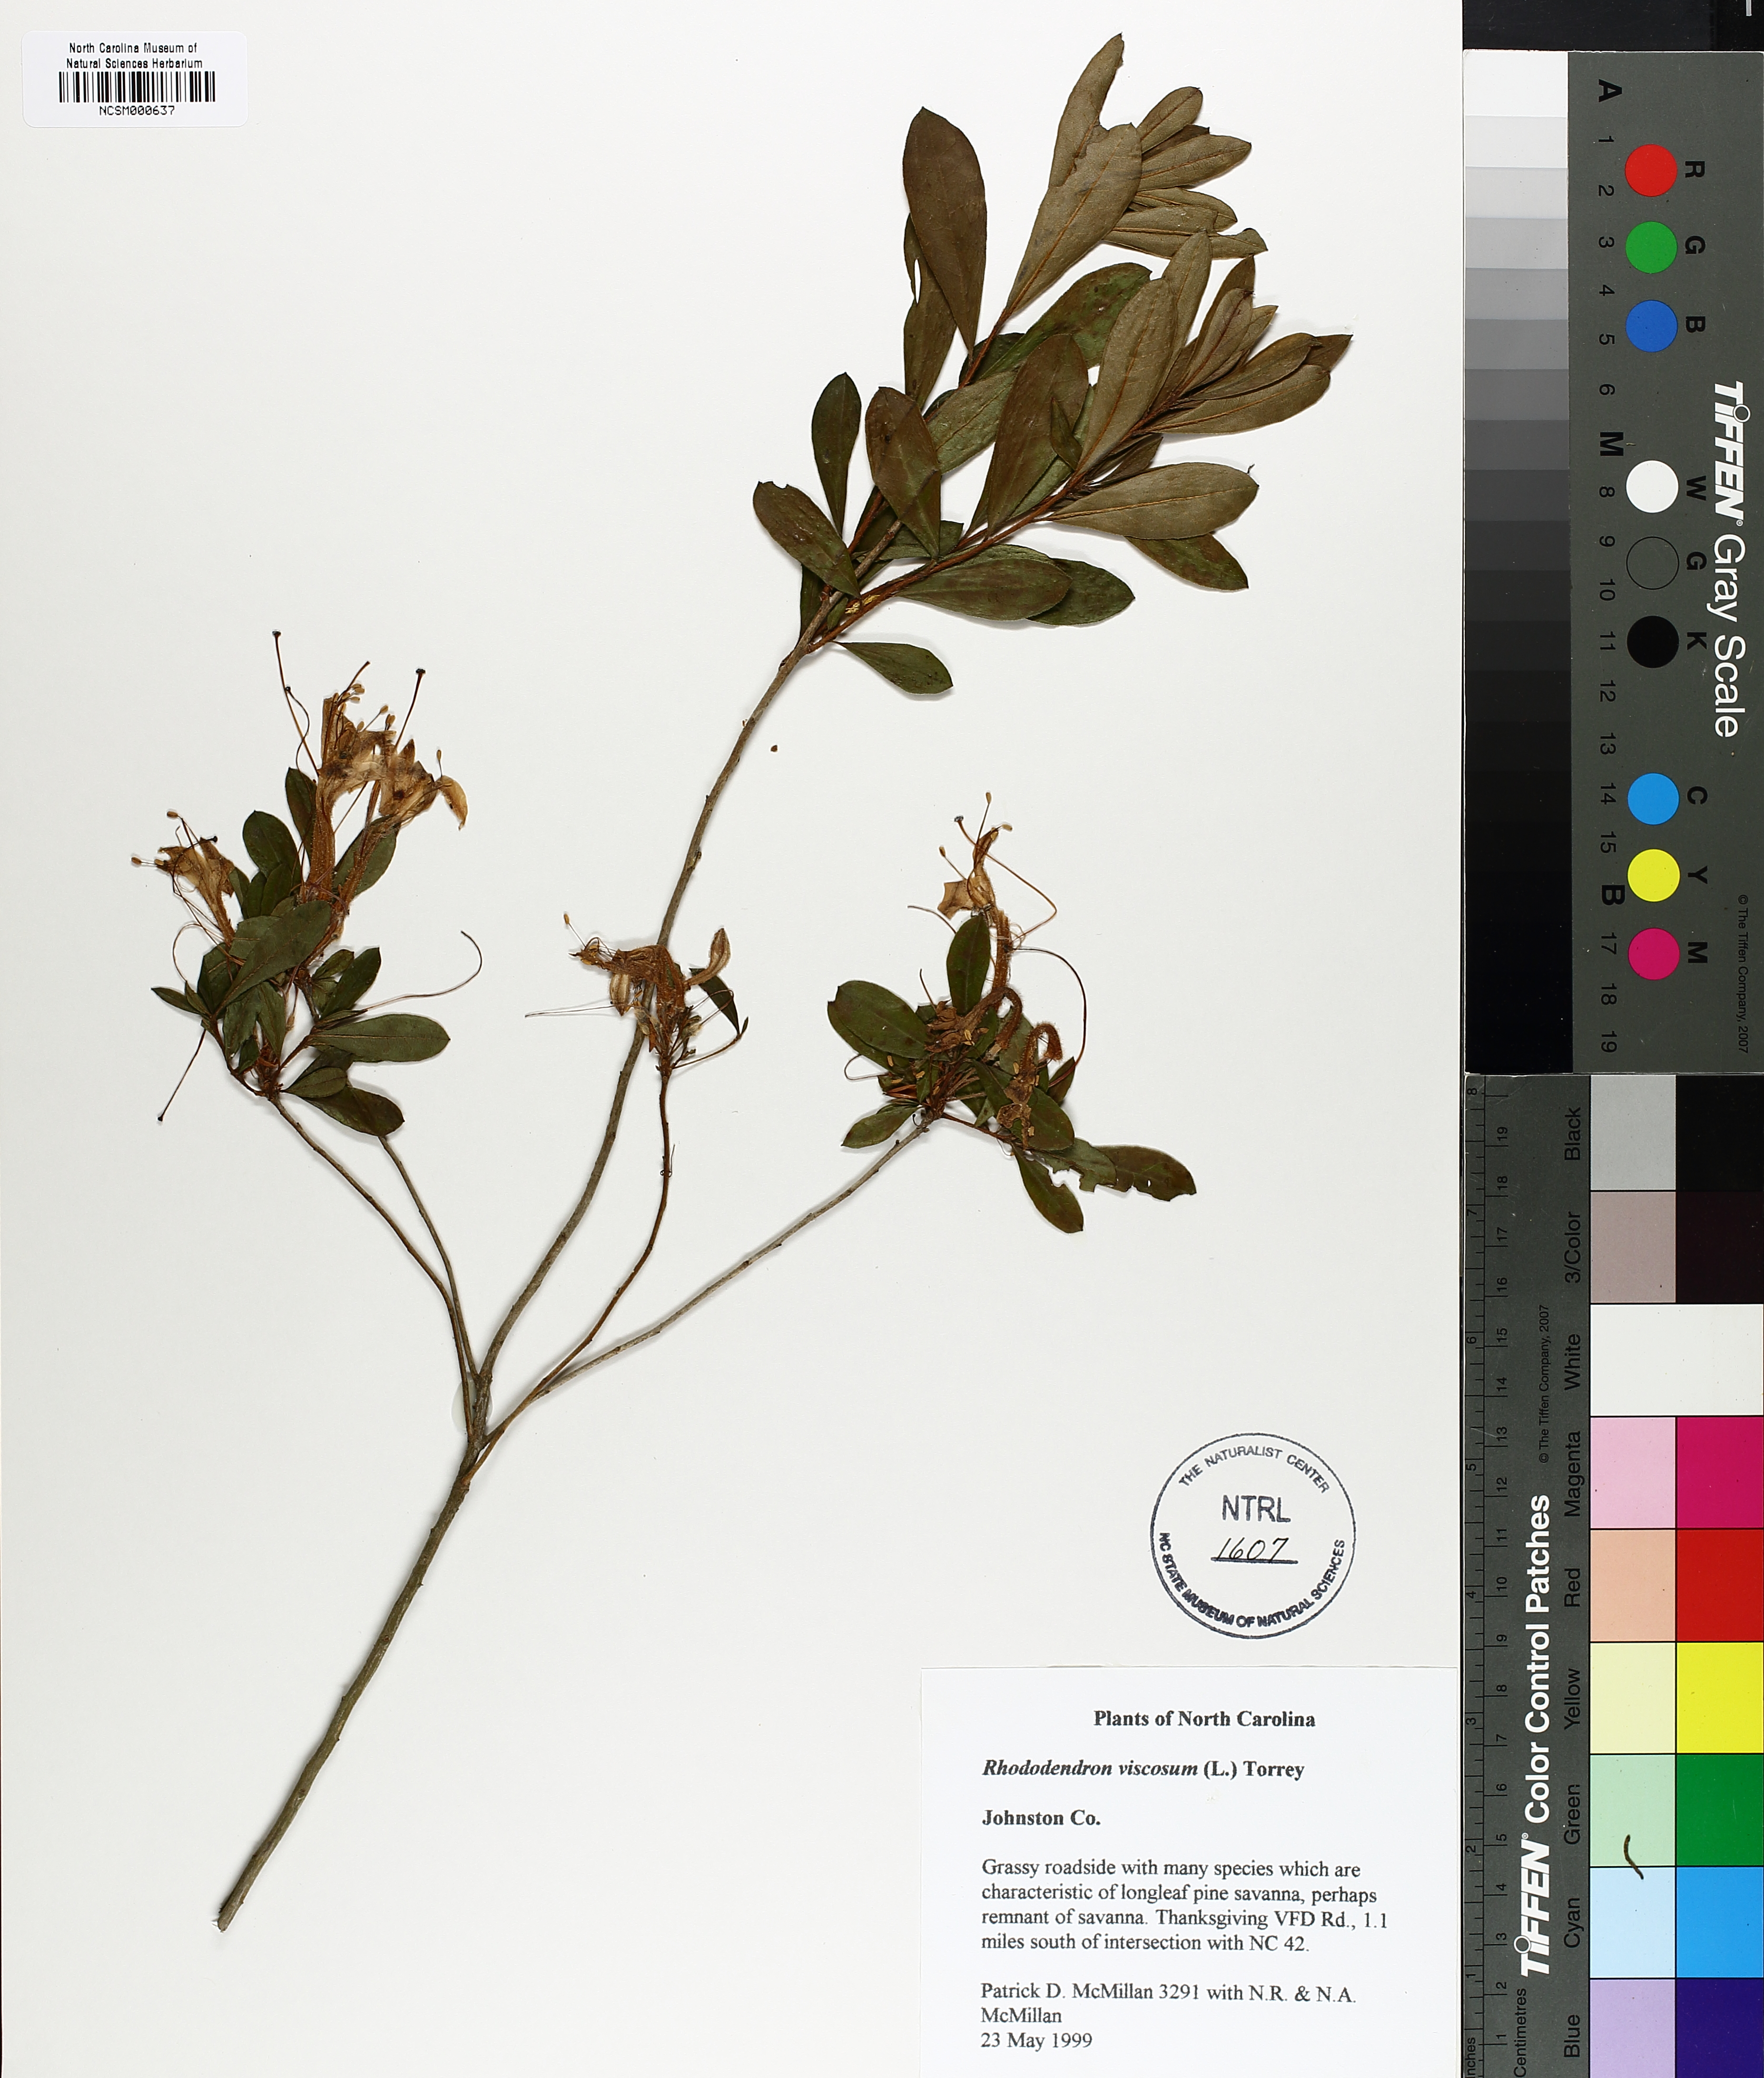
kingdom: Plantae
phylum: Tracheophyta
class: Magnoliopsida
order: Ericales
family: Ericaceae
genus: Rhododendron
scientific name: Rhododendron viscosum
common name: Clammy azalea
